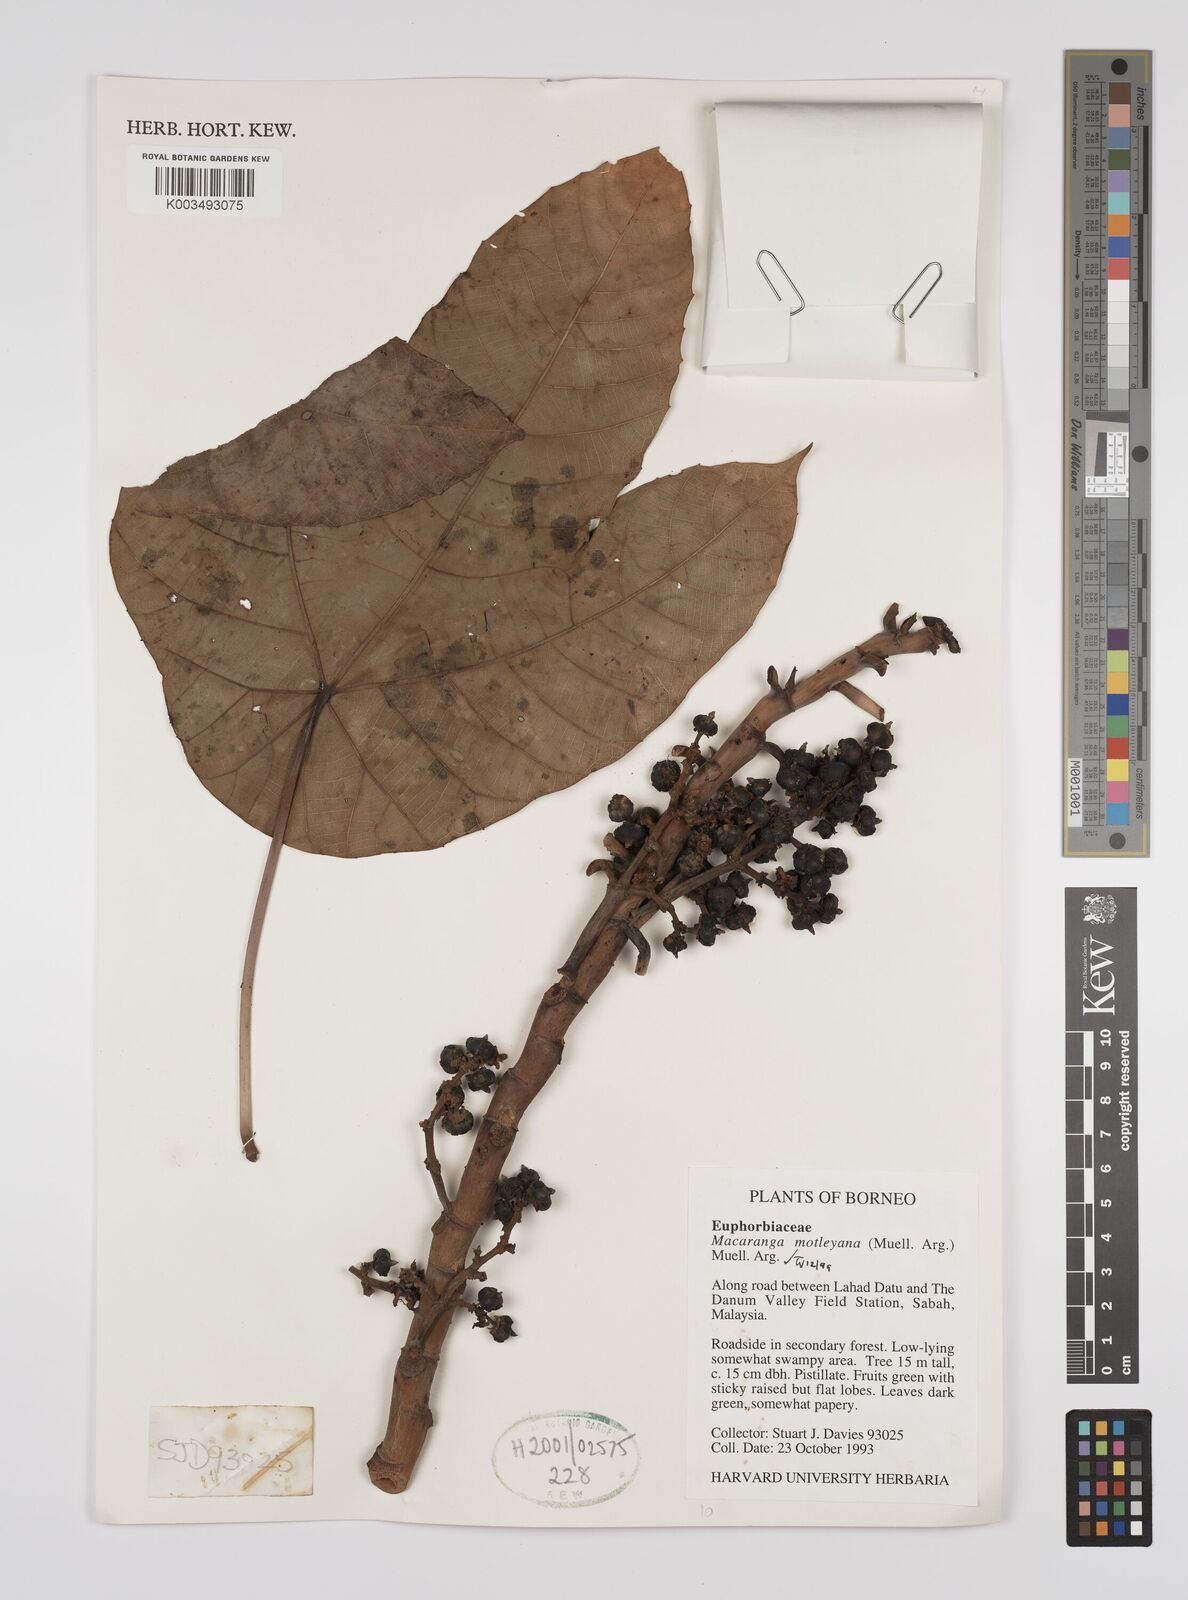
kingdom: Plantae
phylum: Tracheophyta
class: Magnoliopsida
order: Malpighiales
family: Euphorbiaceae
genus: Macaranga
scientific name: Macaranga motleyana
